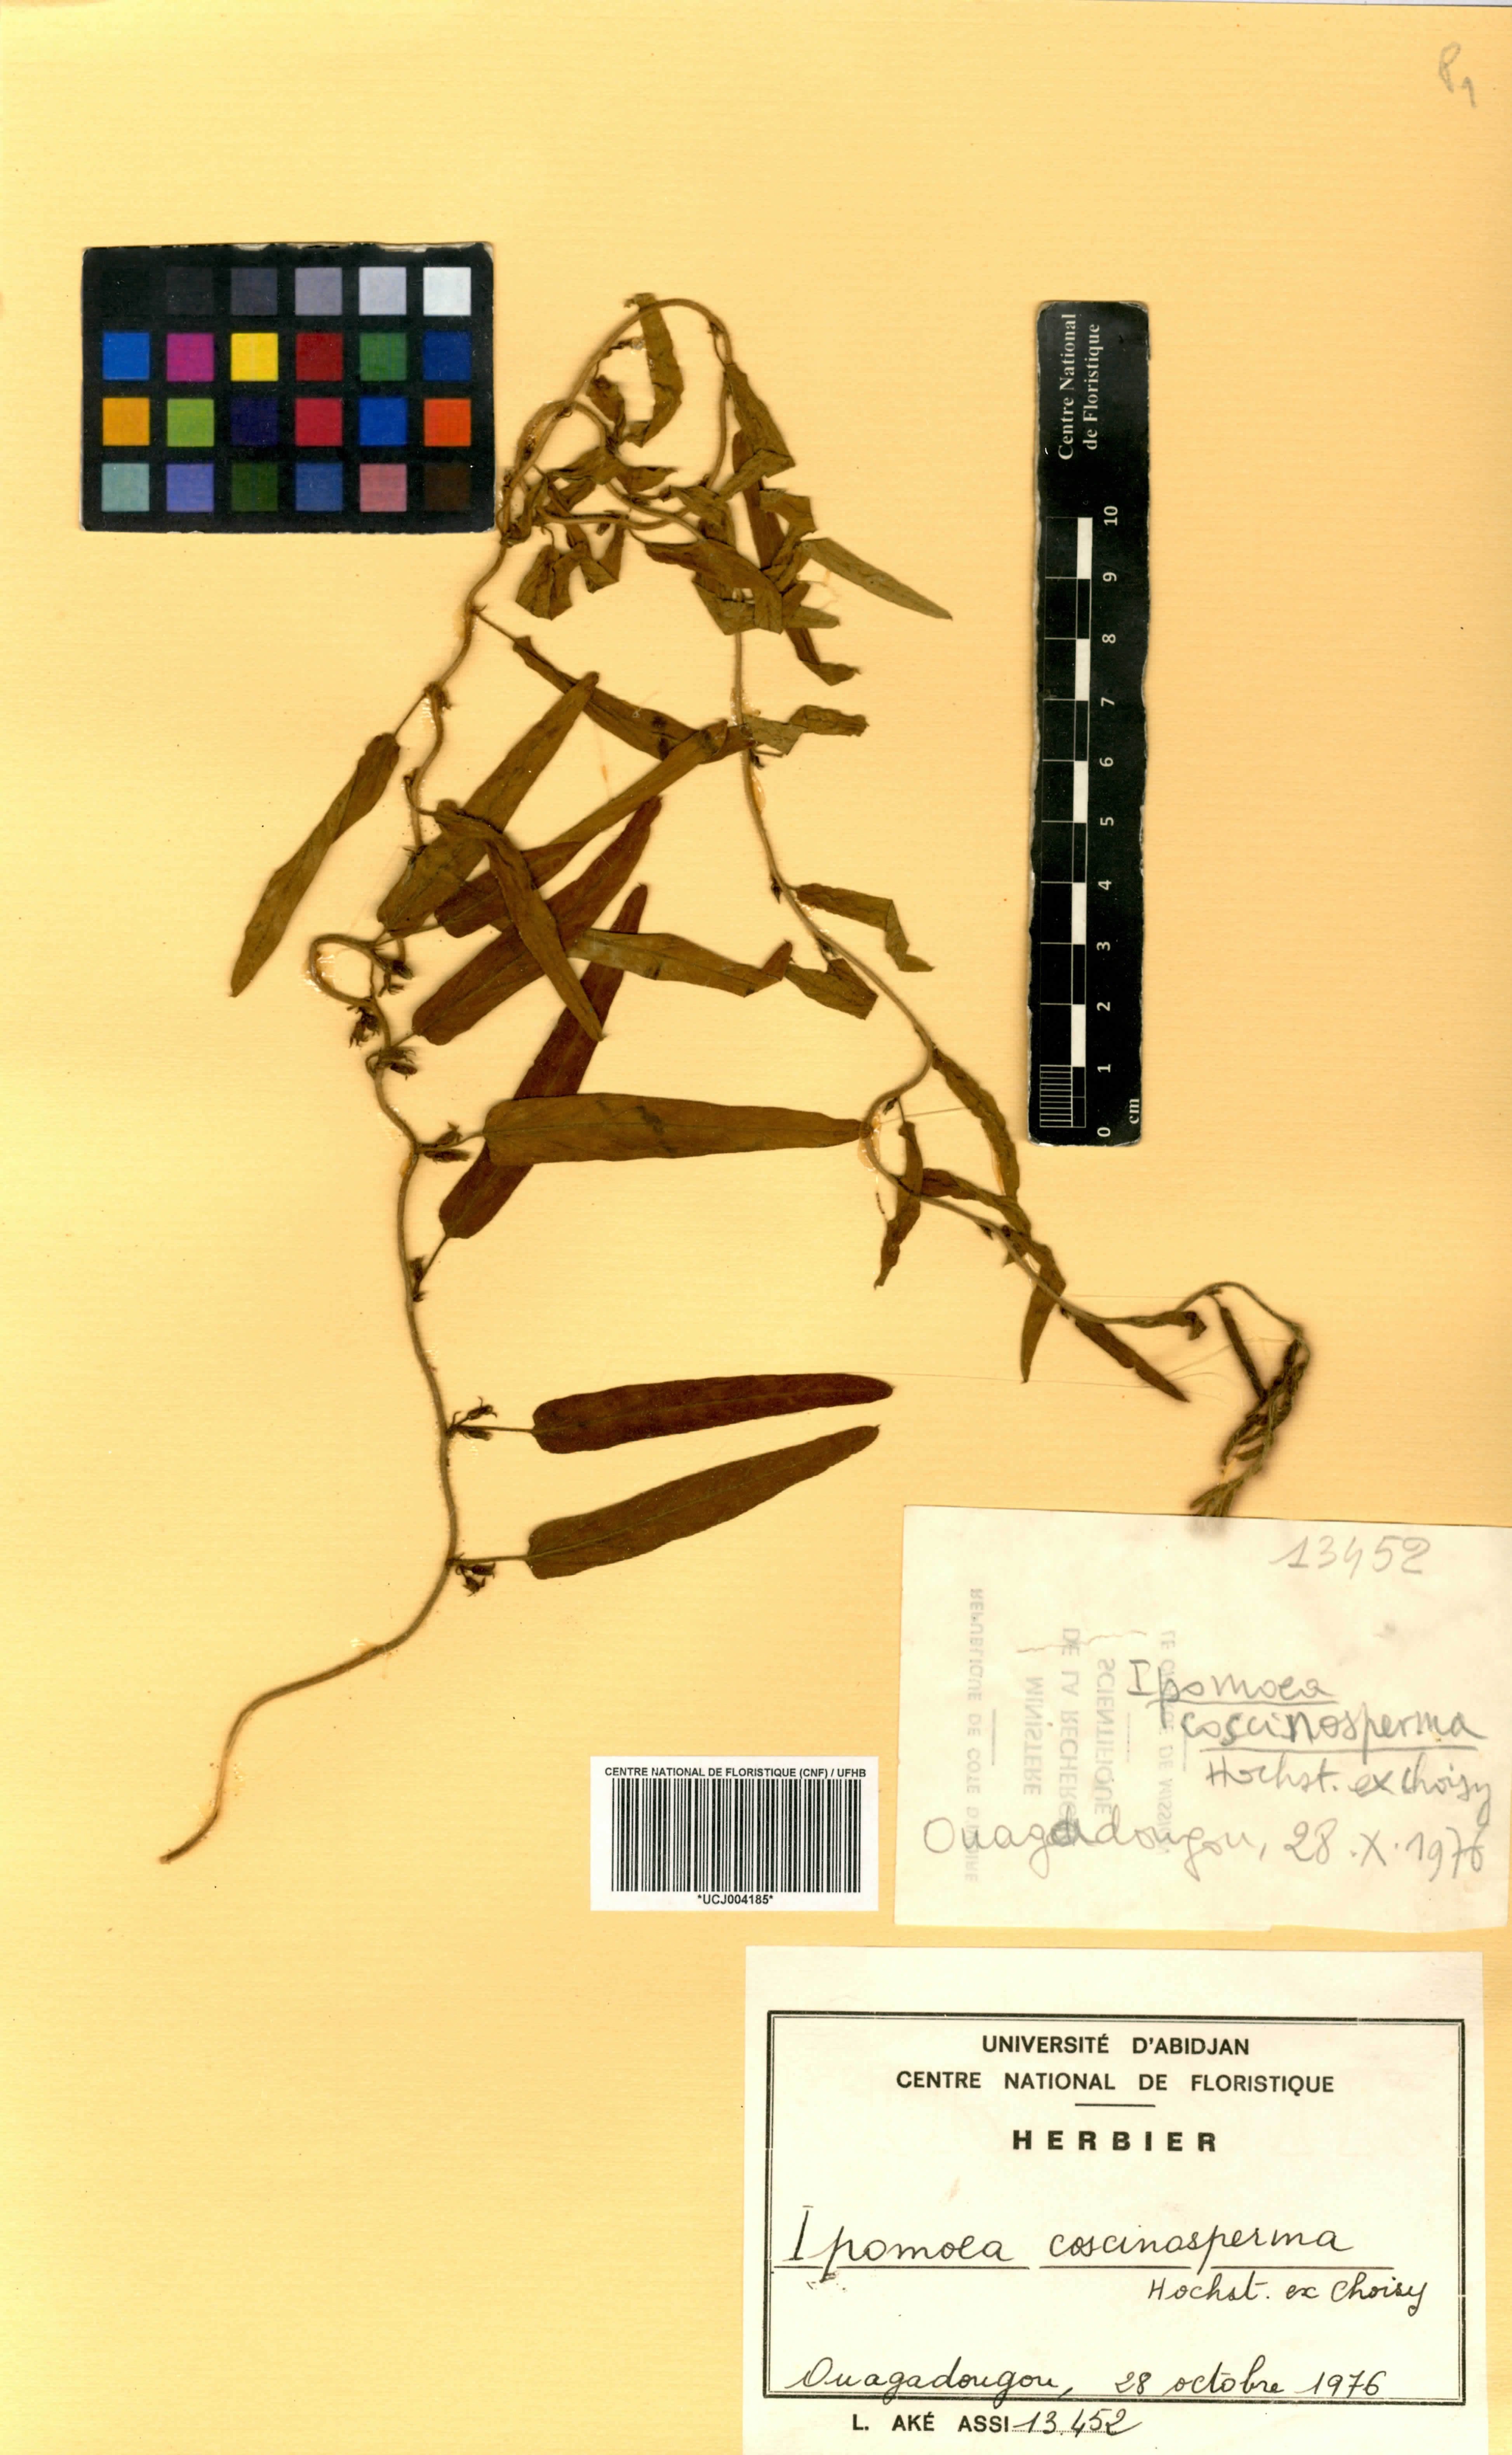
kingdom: Plantae
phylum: Tracheophyta
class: Magnoliopsida
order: Solanales
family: Convolvulaceae
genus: Ipomoea
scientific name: Ipomoea coscinosperma
